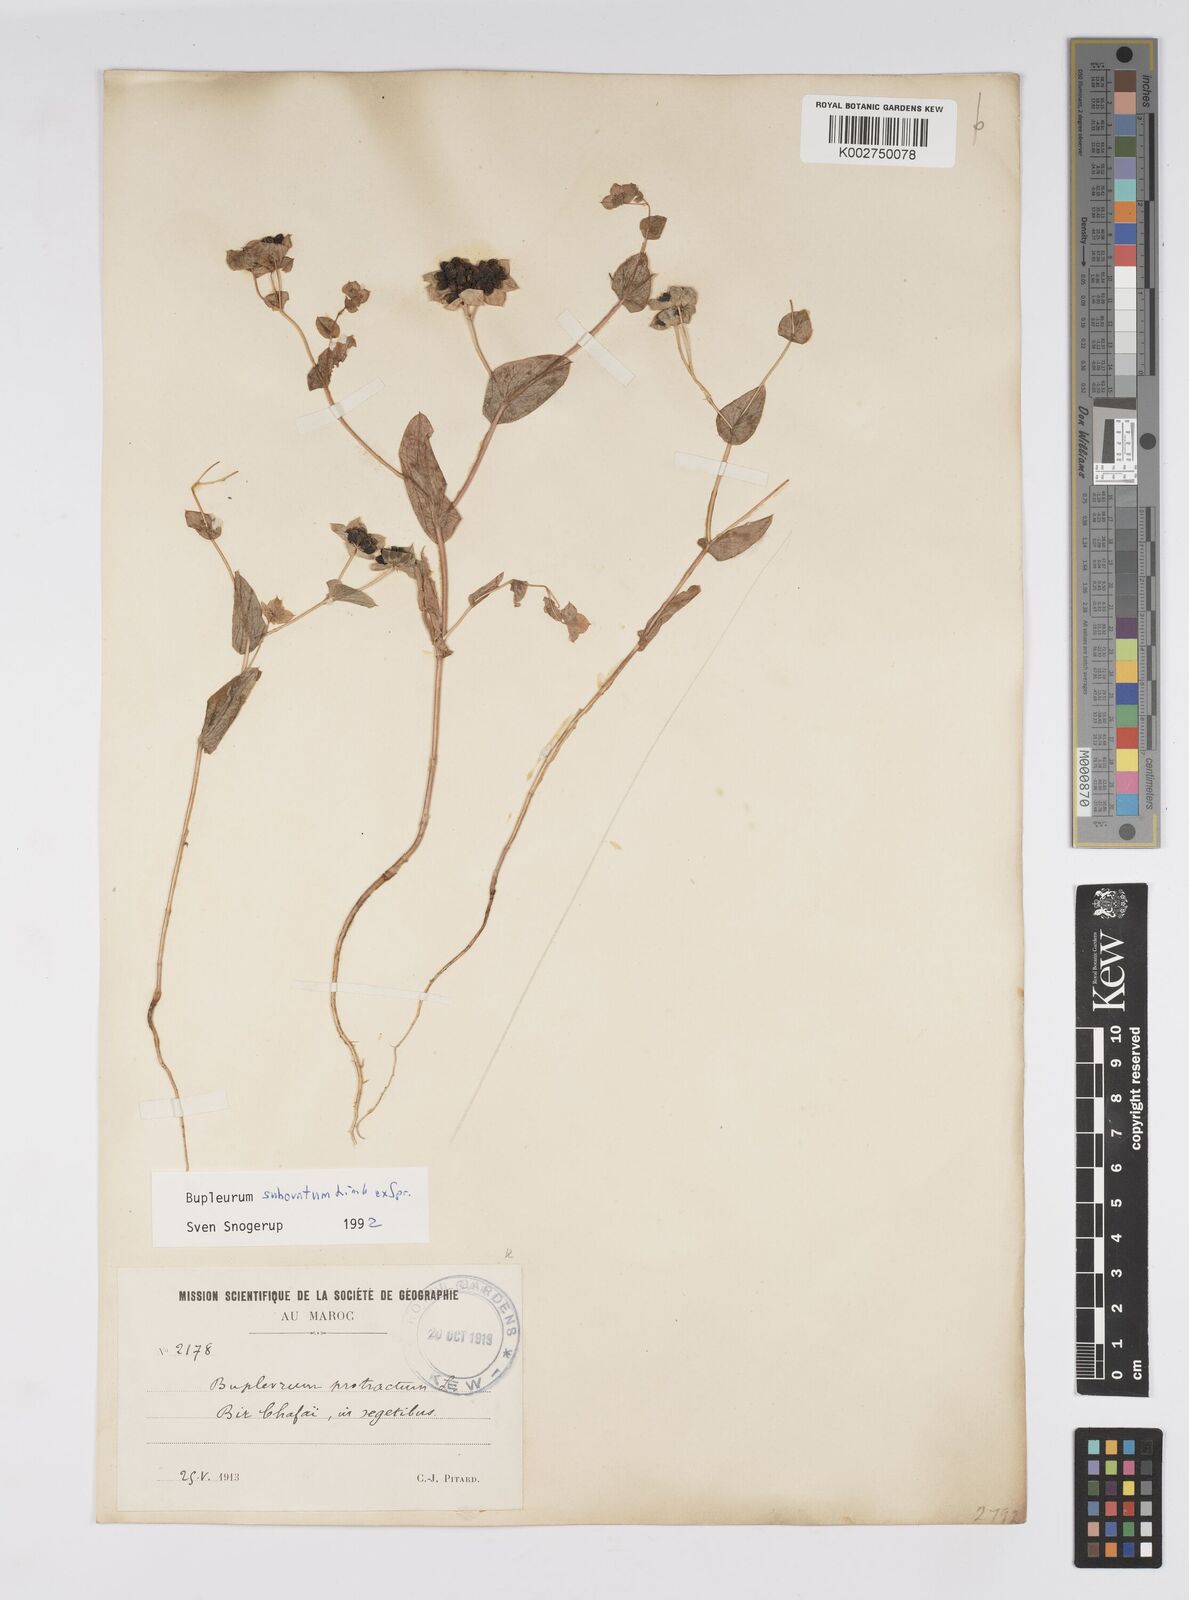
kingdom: Plantae
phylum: Tracheophyta
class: Magnoliopsida
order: Apiales
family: Apiaceae
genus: Bupleurum
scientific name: Bupleurum subovatum
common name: False thorow-wax
